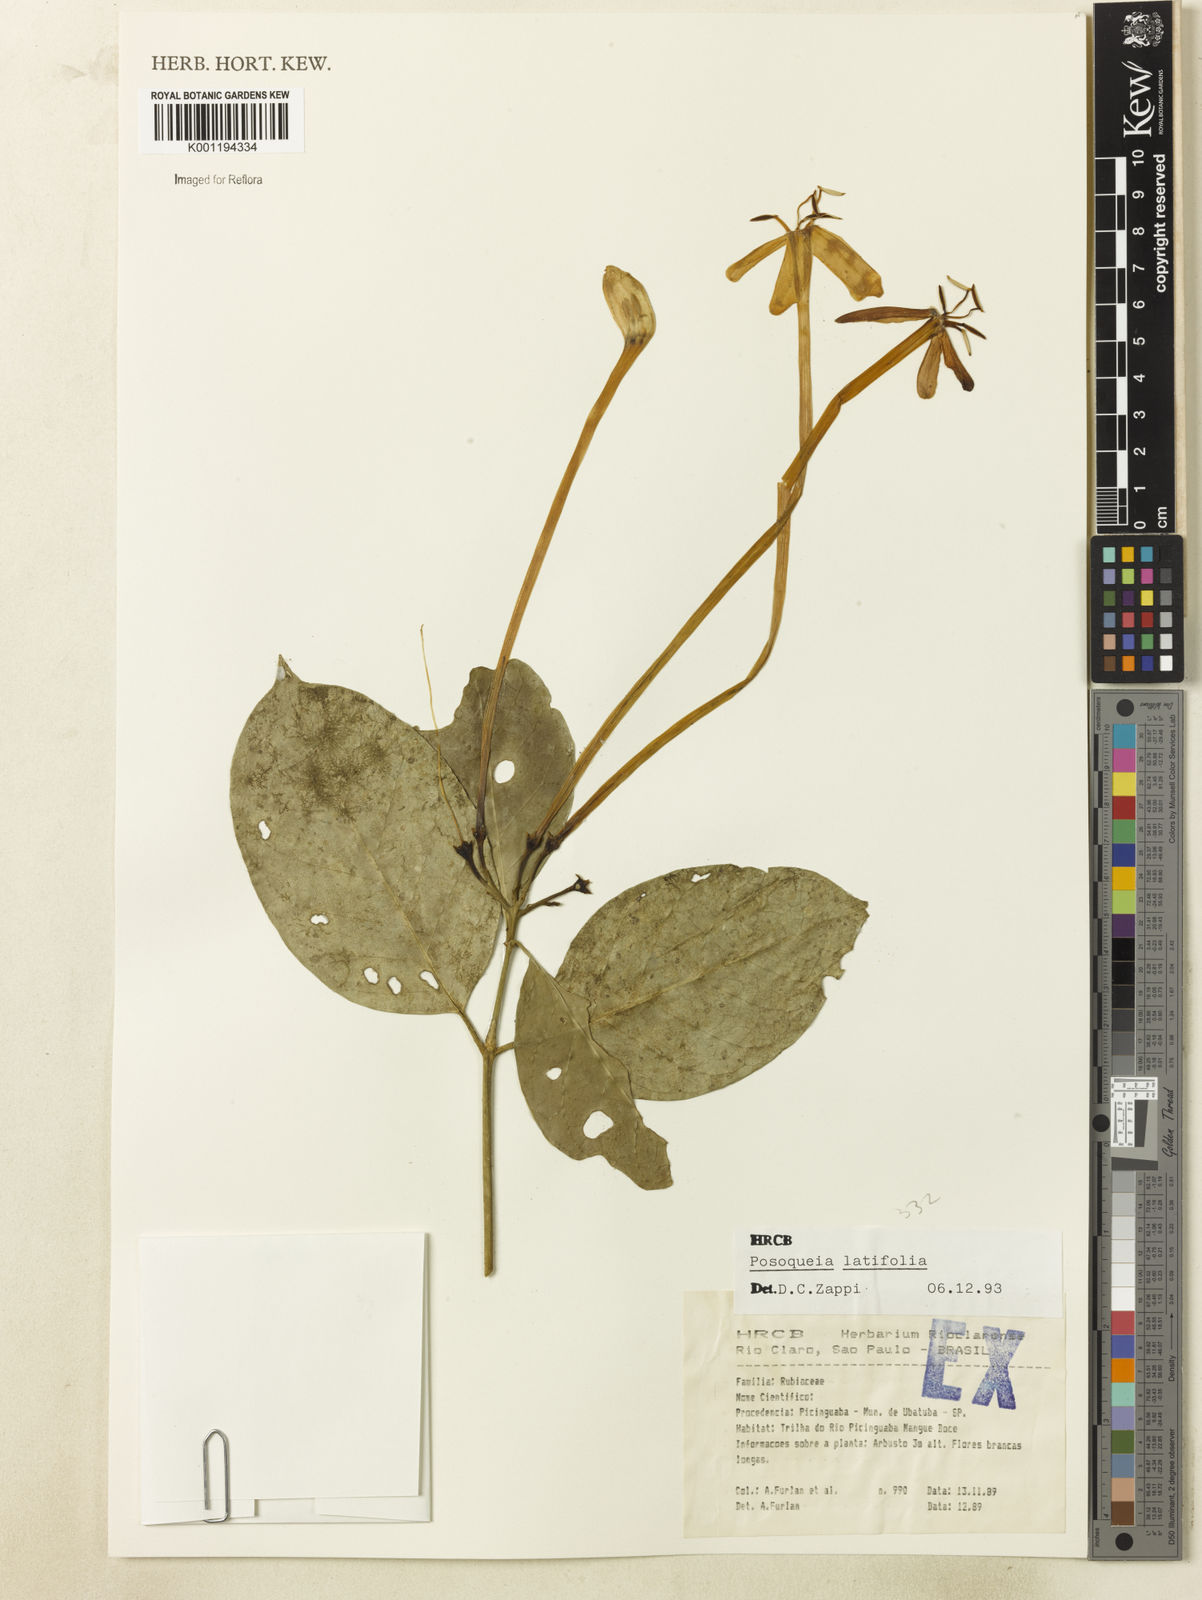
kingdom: Plantae
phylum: Tracheophyta
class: Magnoliopsida
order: Gentianales
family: Rubiaceae
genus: Posoqueria
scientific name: Posoqueria latifolia
